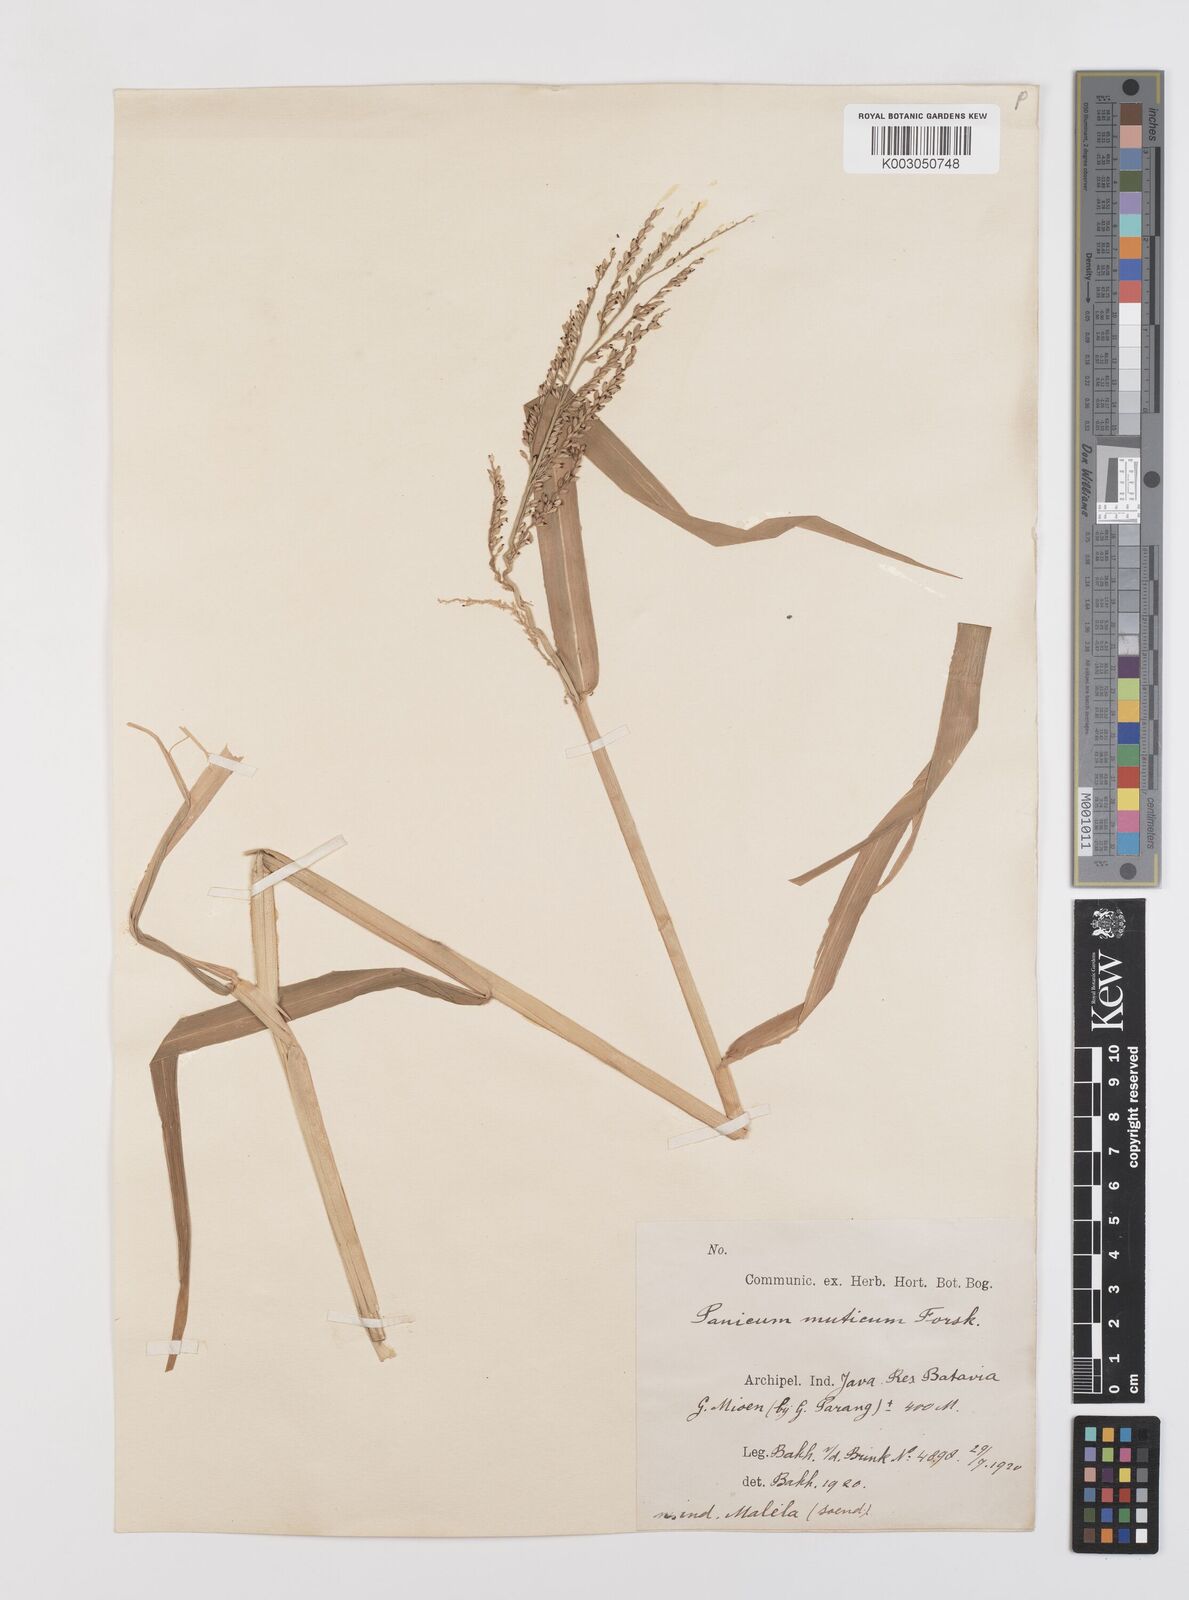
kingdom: Plantae
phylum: Tracheophyta
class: Liliopsida
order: Poales
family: Poaceae
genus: Urochloa
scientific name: Urochloa mutica
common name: Para grass
